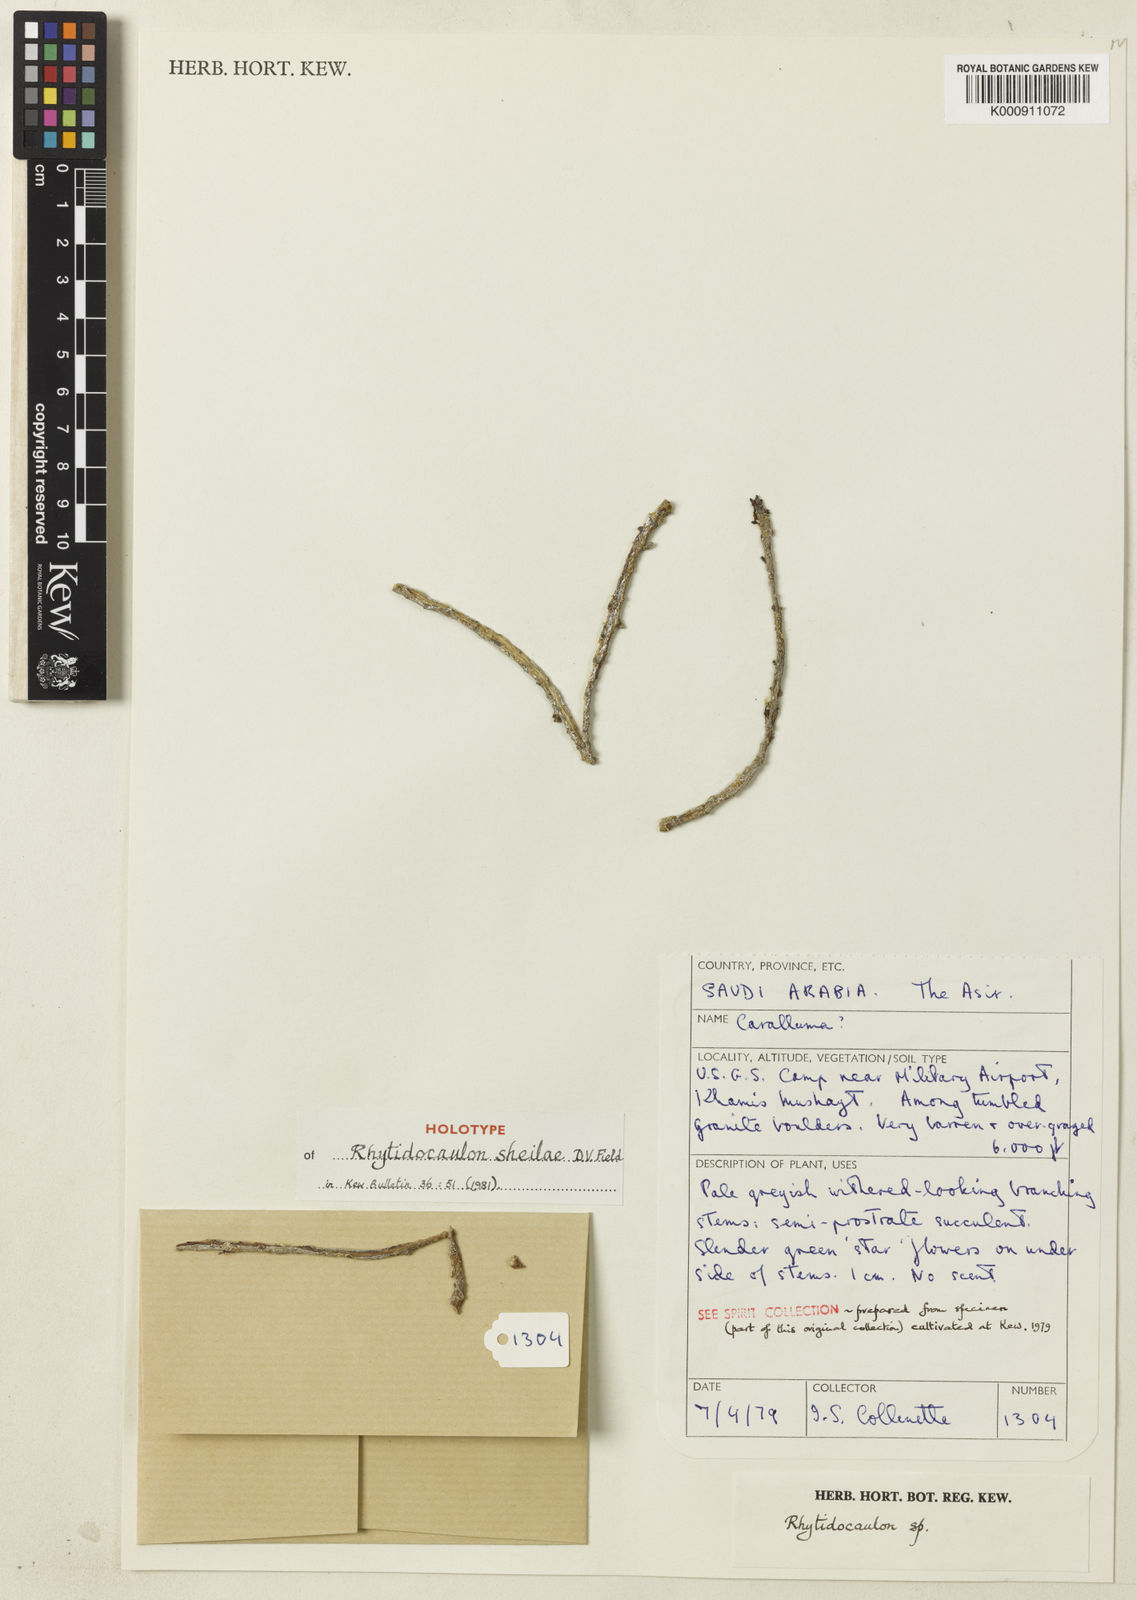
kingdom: Plantae
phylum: Tracheophyta
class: Magnoliopsida
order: Gentianales
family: Apocynaceae
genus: Ceropegia
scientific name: Ceropegia sheilae
